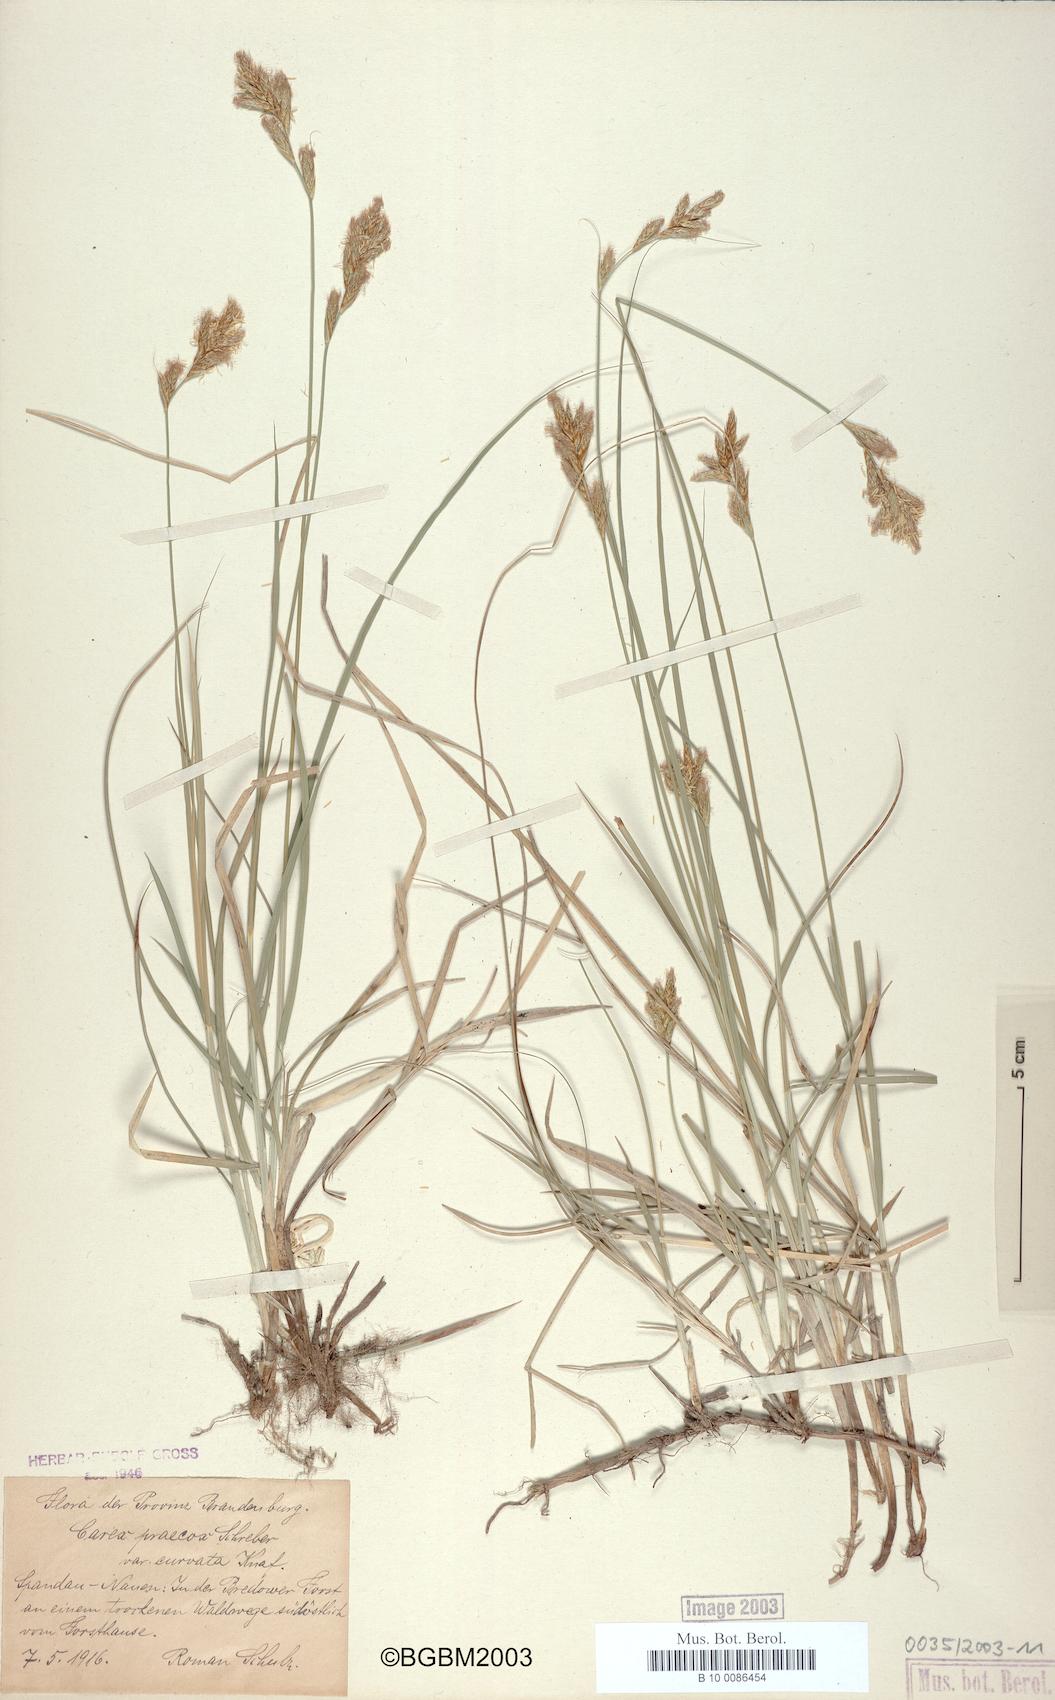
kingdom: Plantae
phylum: Tracheophyta
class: Liliopsida
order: Poales
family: Cyperaceae
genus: Carex
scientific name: Carex curvata
